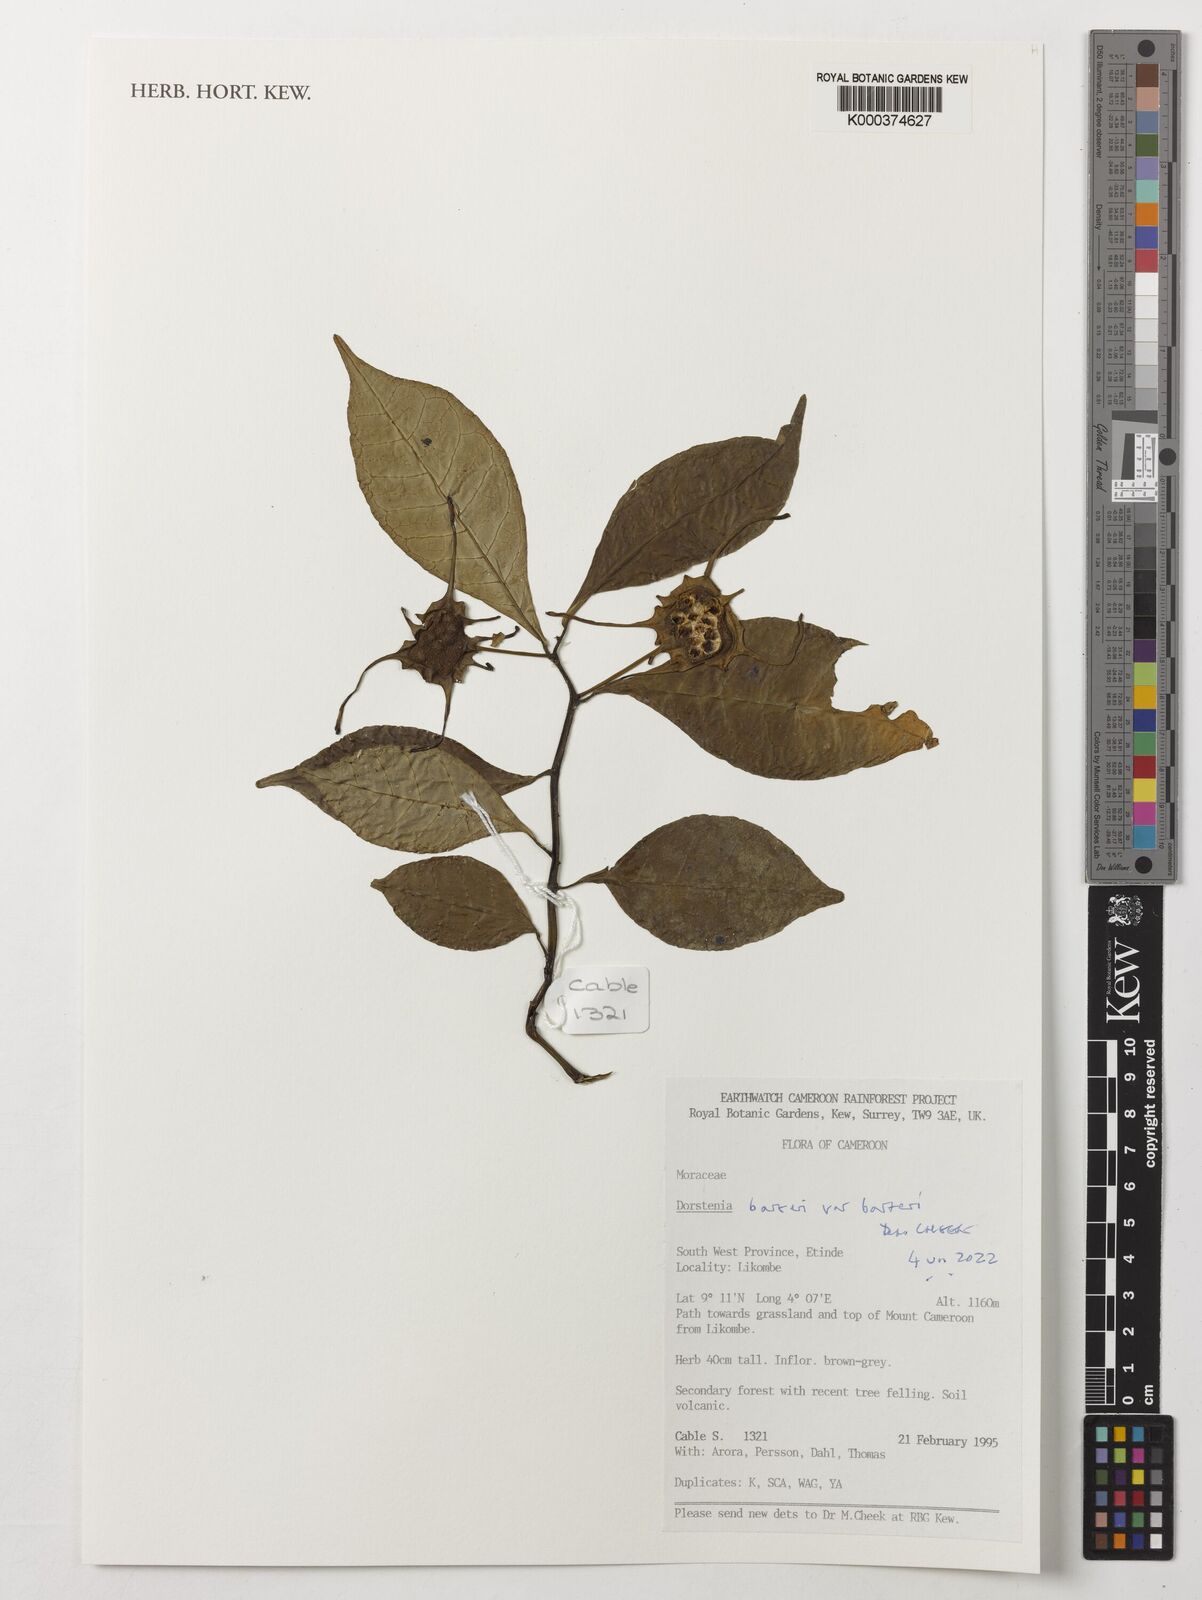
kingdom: Plantae
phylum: Tracheophyta
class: Magnoliopsida
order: Rosales
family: Moraceae
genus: Dorstenia
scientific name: Dorstenia barteri
